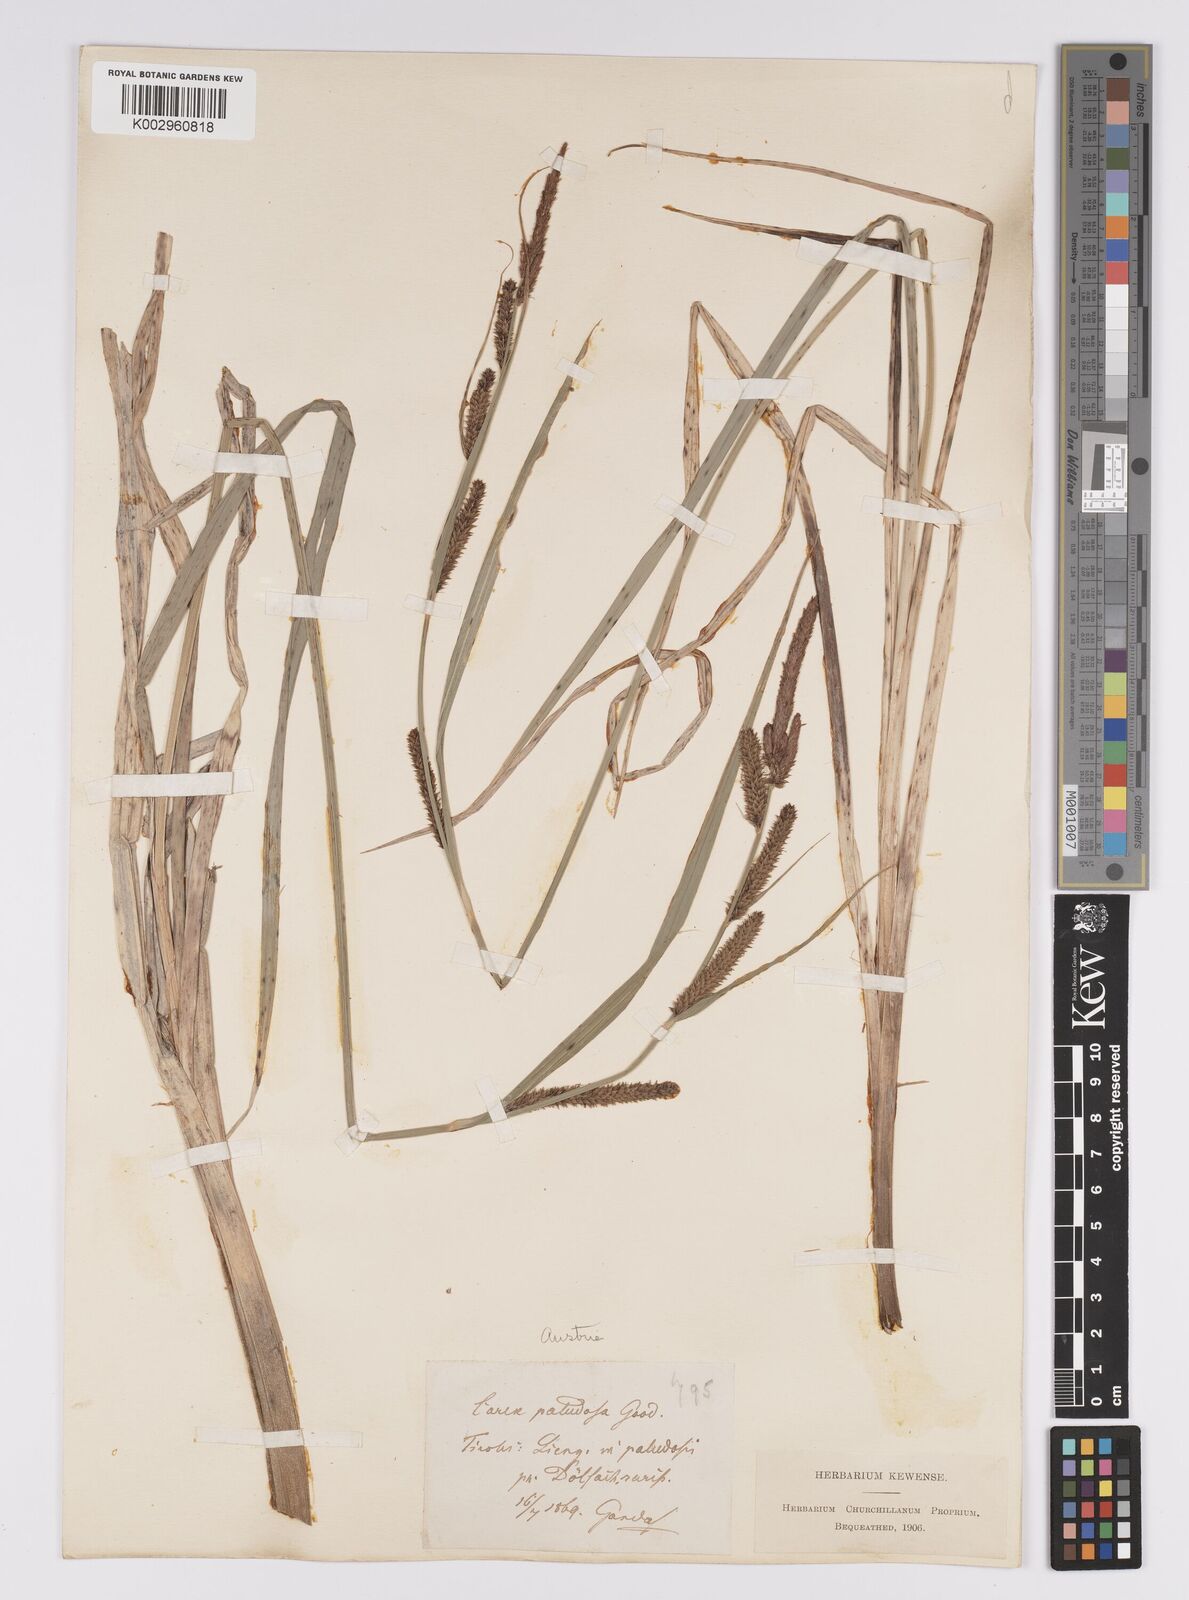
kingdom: Plantae
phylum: Tracheophyta
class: Liliopsida
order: Poales
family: Cyperaceae
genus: Carex
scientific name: Carex acutiformis
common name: Lesser pond-sedge
